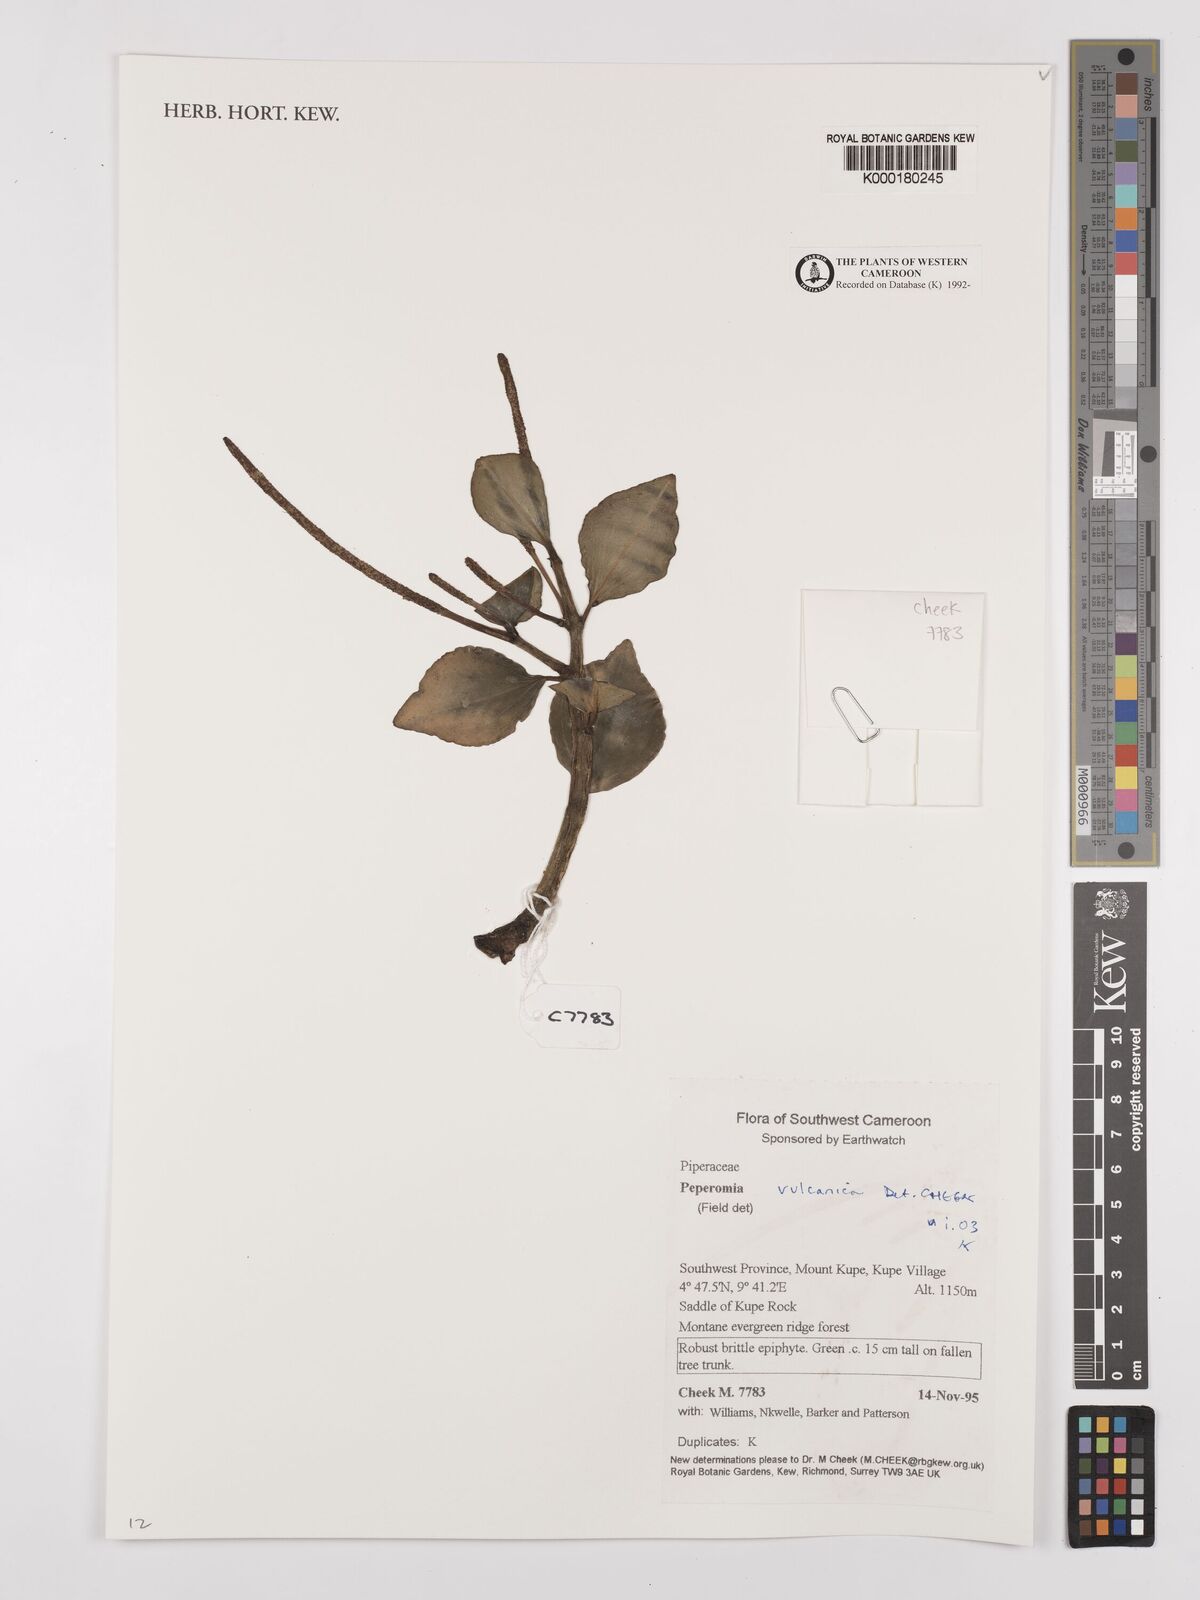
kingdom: Plantae
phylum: Tracheophyta
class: Magnoliopsida
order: Piperales
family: Piperaceae
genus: Peperomia
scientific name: Peperomia vulcanica
